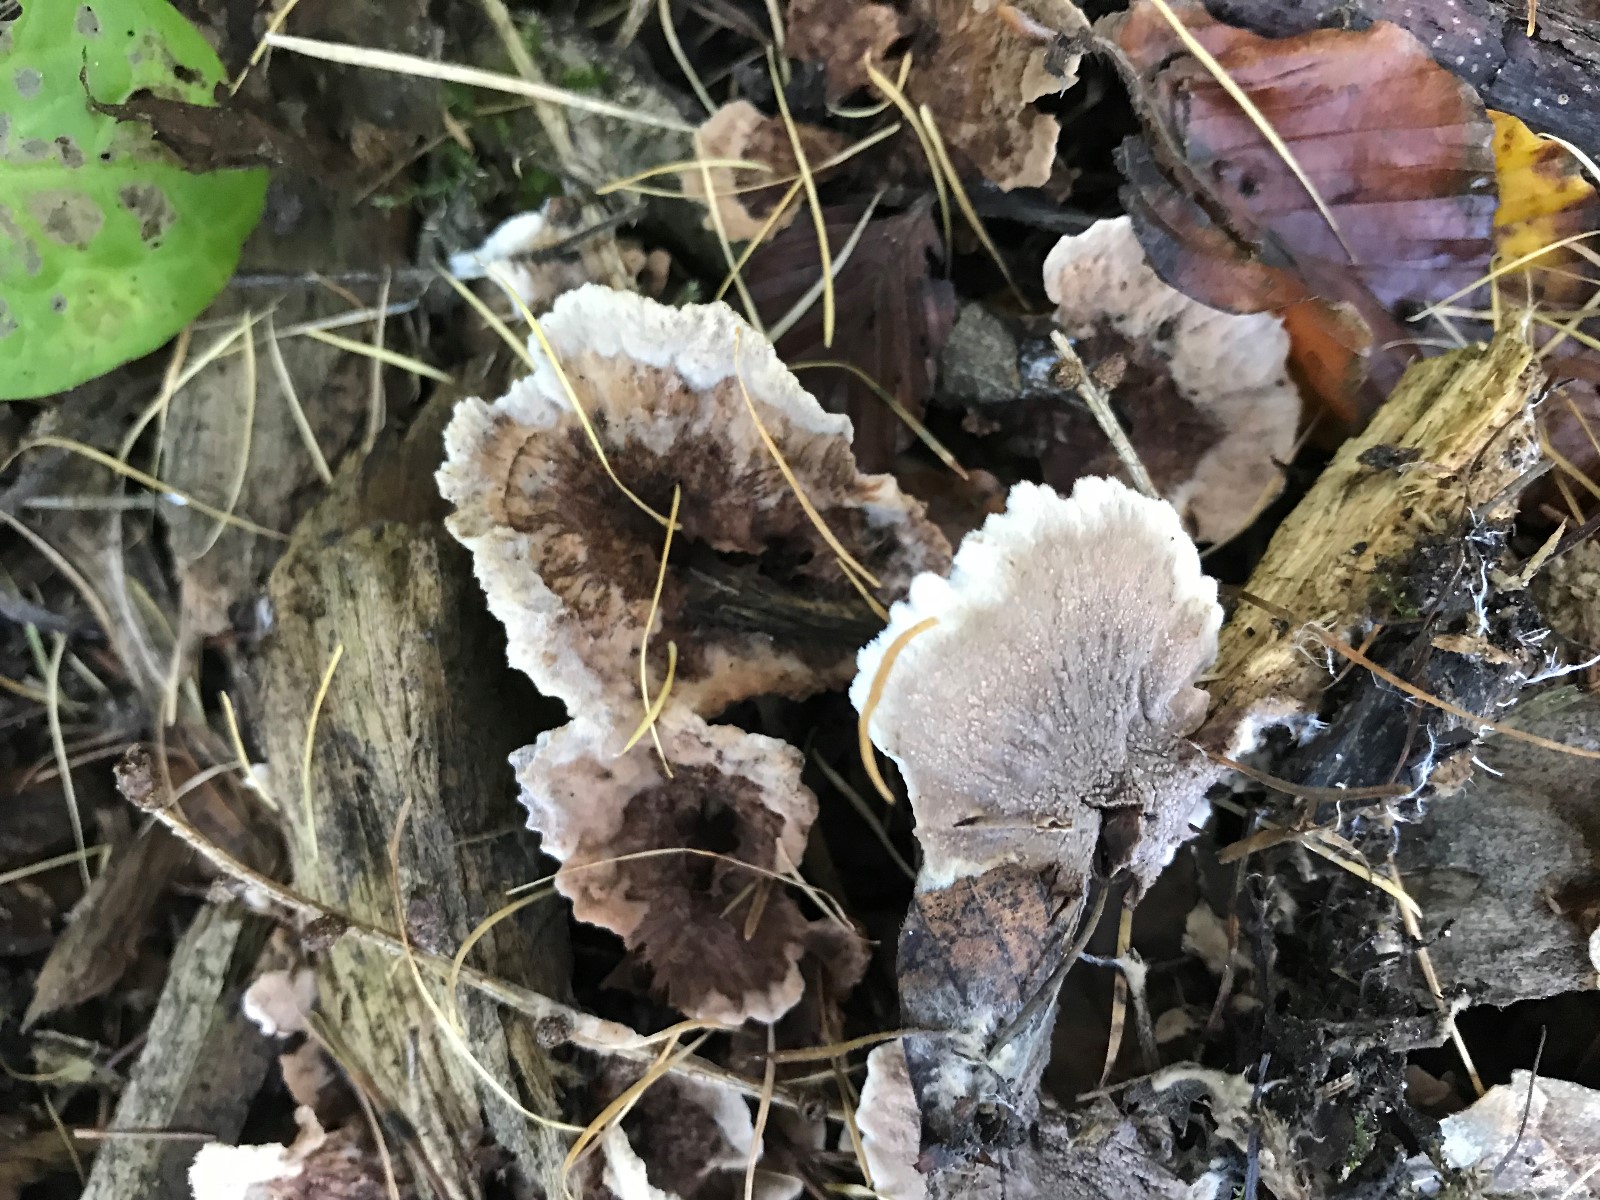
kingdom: Fungi
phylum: Basidiomycota
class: Agaricomycetes
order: Thelephorales
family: Thelephoraceae
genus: Thelephora
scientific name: Thelephora terrestris
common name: fliget frynsesvamp
